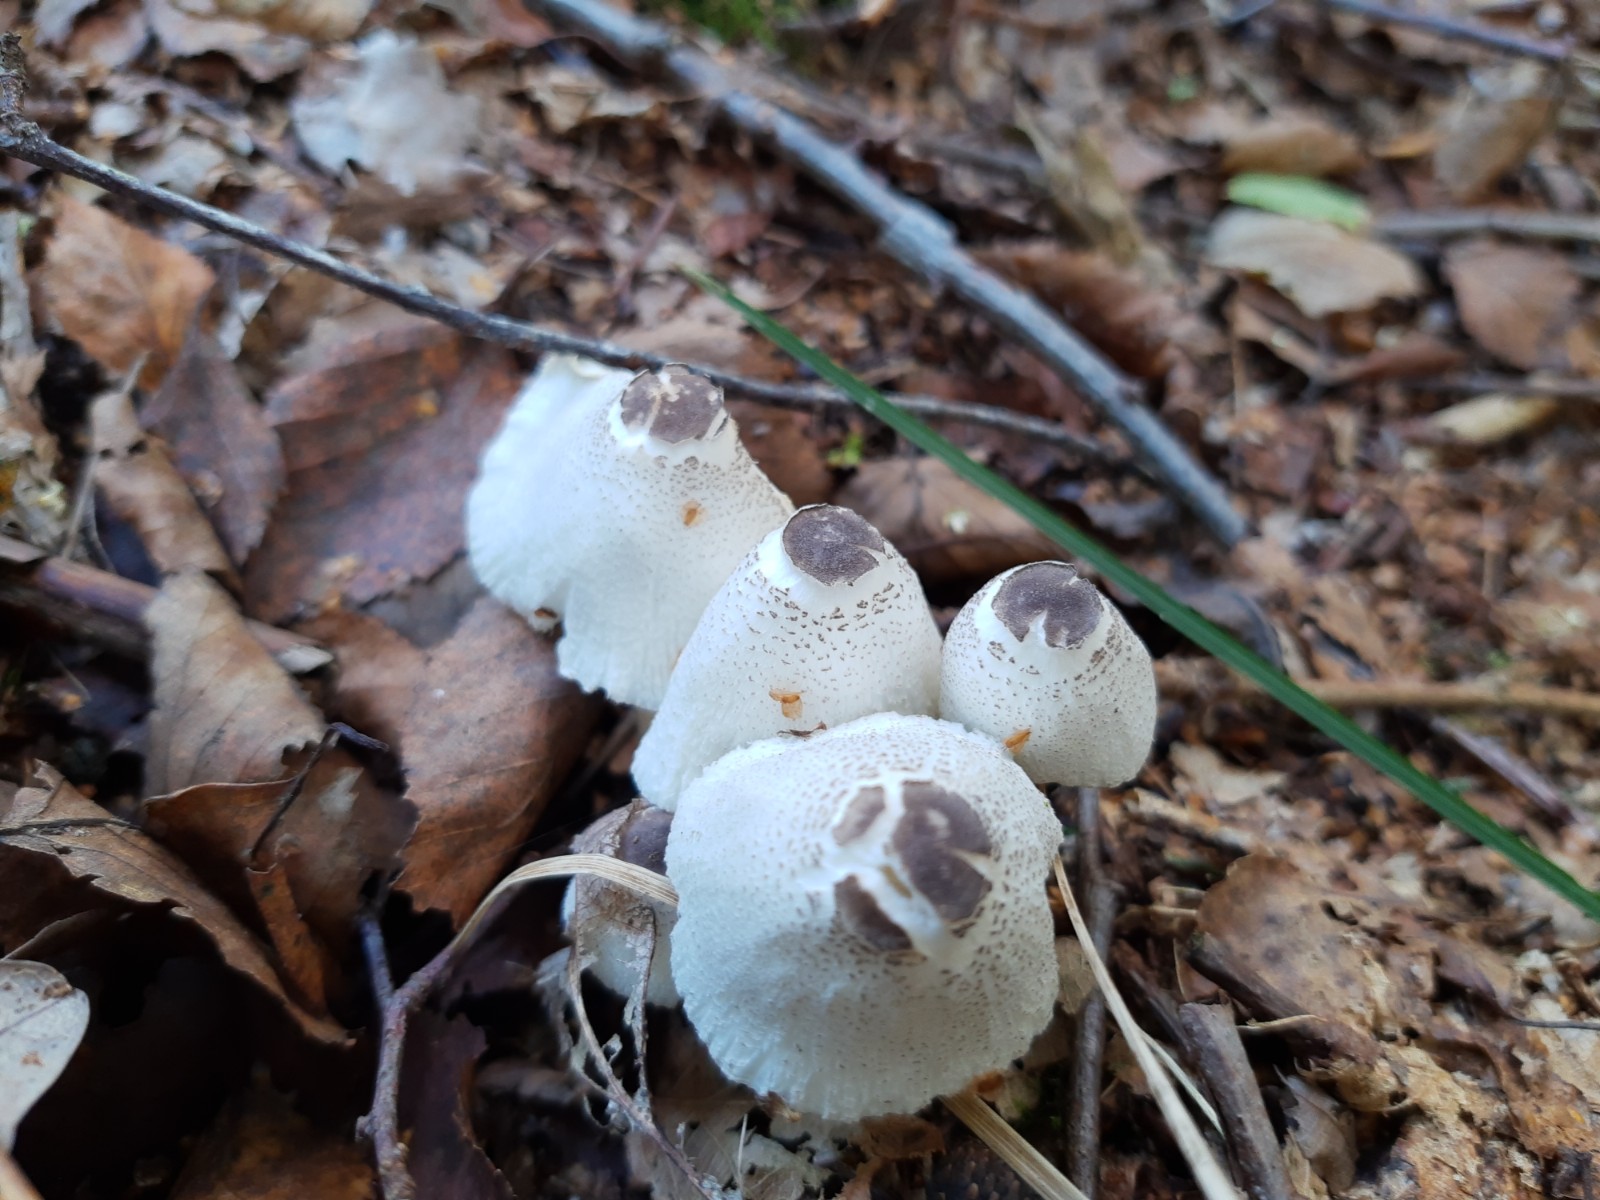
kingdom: Fungi
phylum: Basidiomycota
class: Agaricomycetes
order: Agaricales
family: Agaricaceae
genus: Leucocoprinus
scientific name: Leucocoprinus brebissonii
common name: gråsort silkehat
